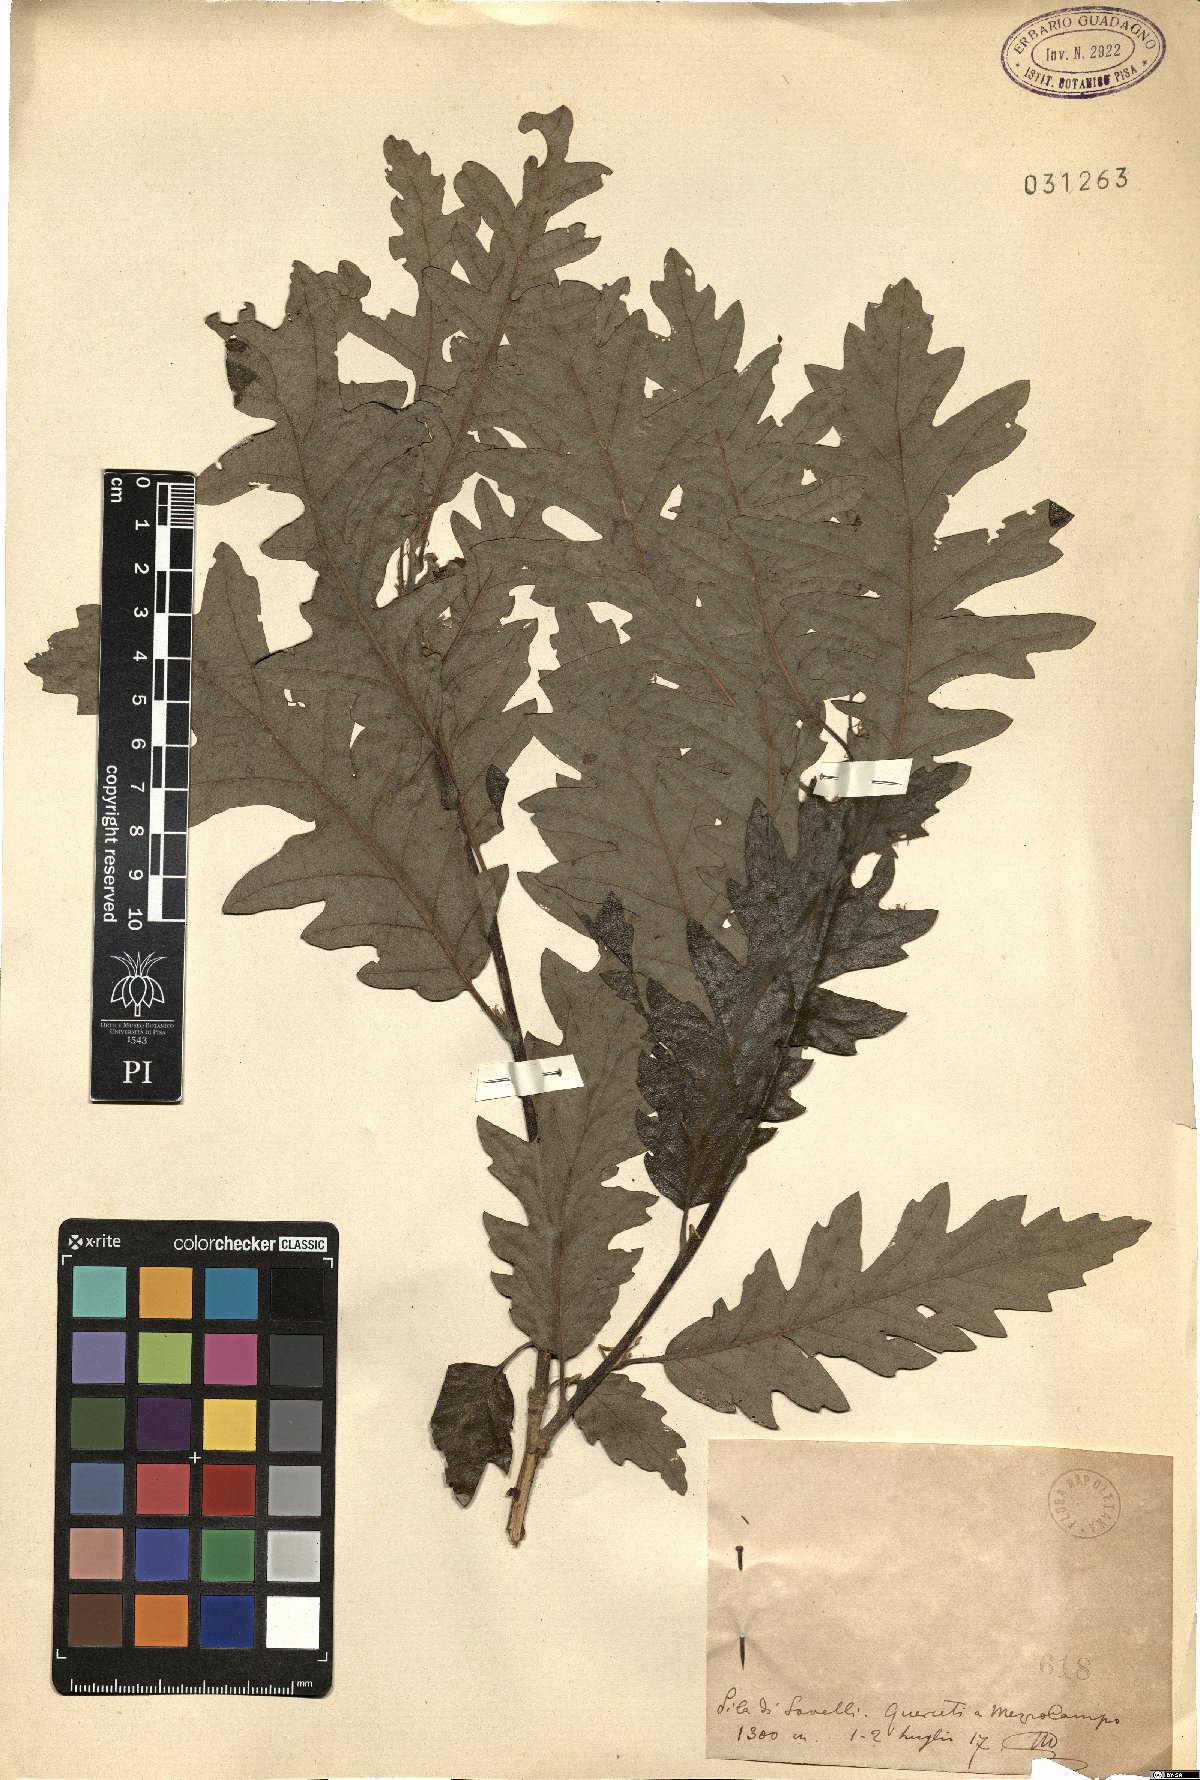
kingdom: Plantae
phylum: Tracheophyta
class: Magnoliopsida
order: Fagales
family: Fagaceae
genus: Quercus
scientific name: Quercus
